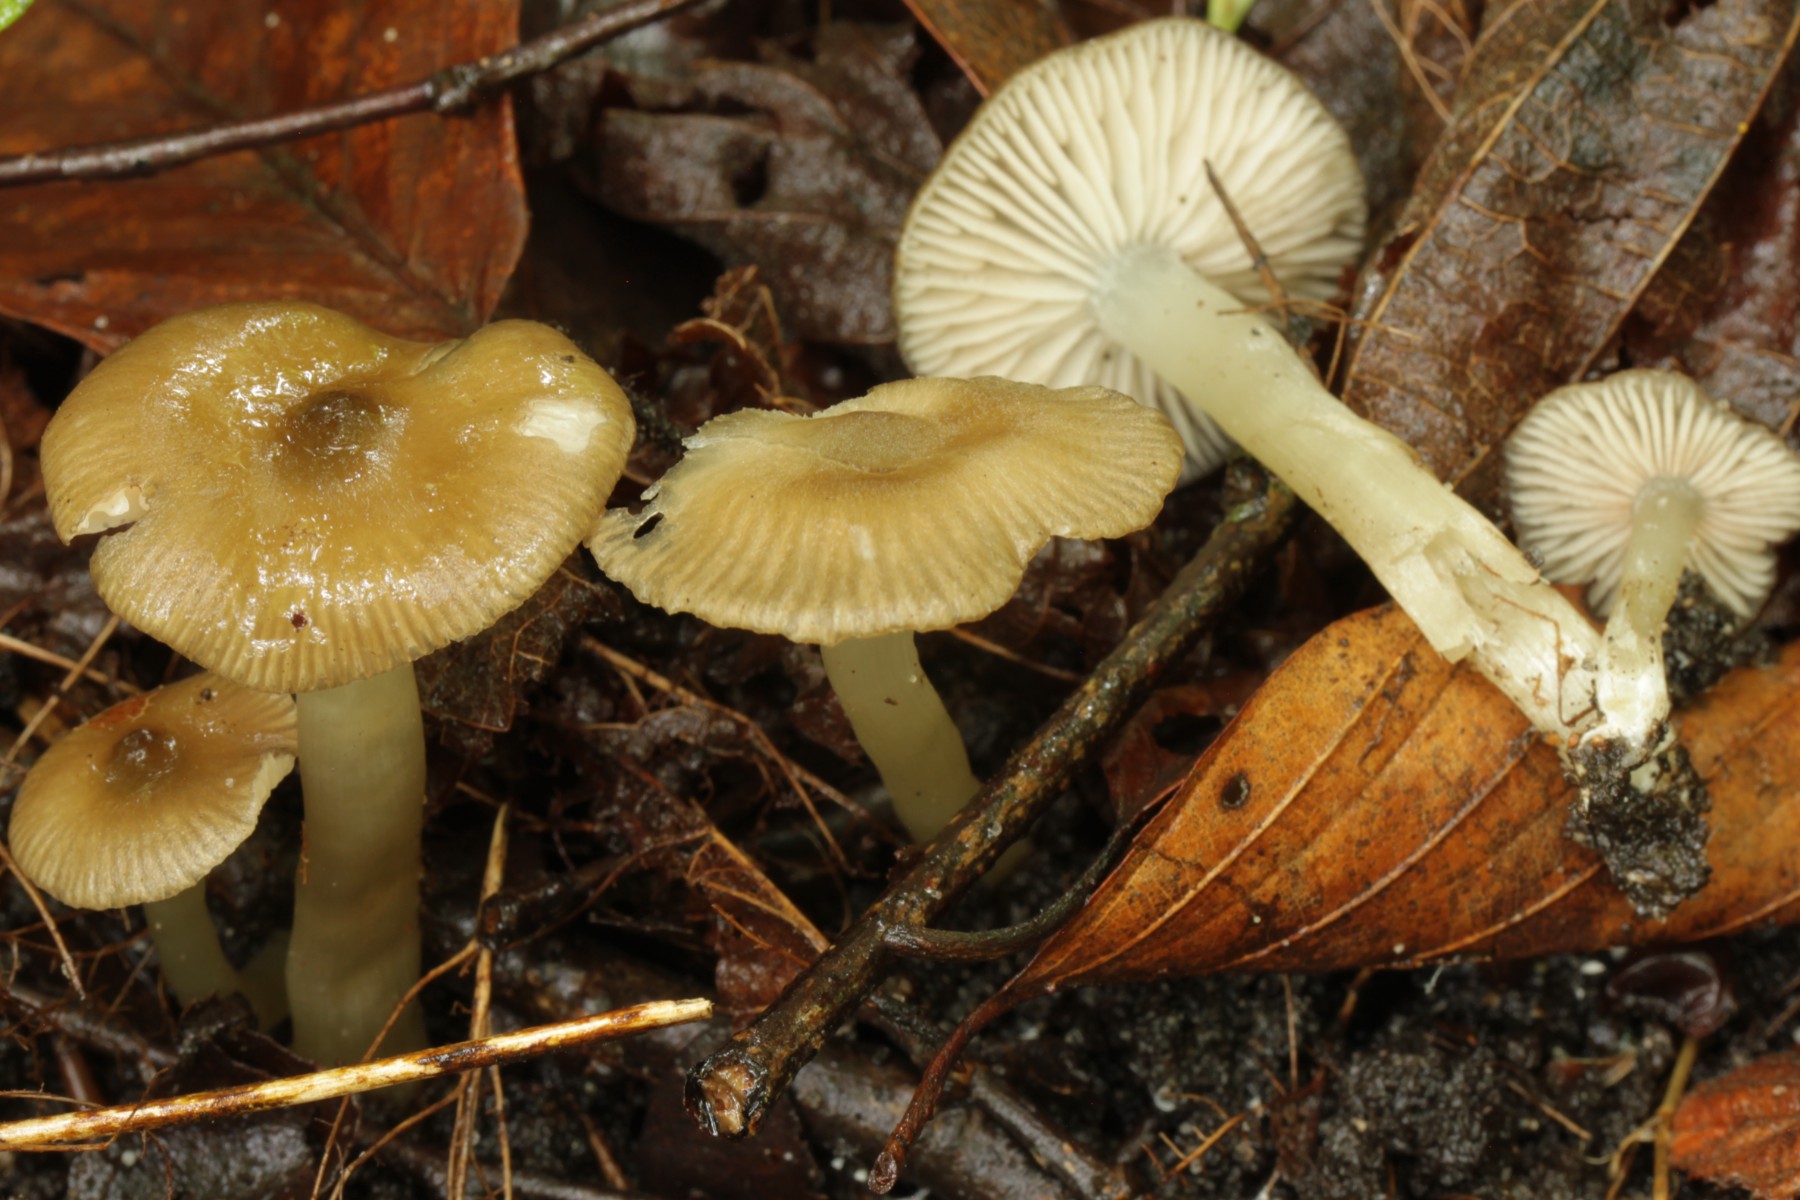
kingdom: Fungi
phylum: Basidiomycota
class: Agaricomycetes
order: Agaricales
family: Entolomataceae
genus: Entoloma
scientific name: Entoloma
